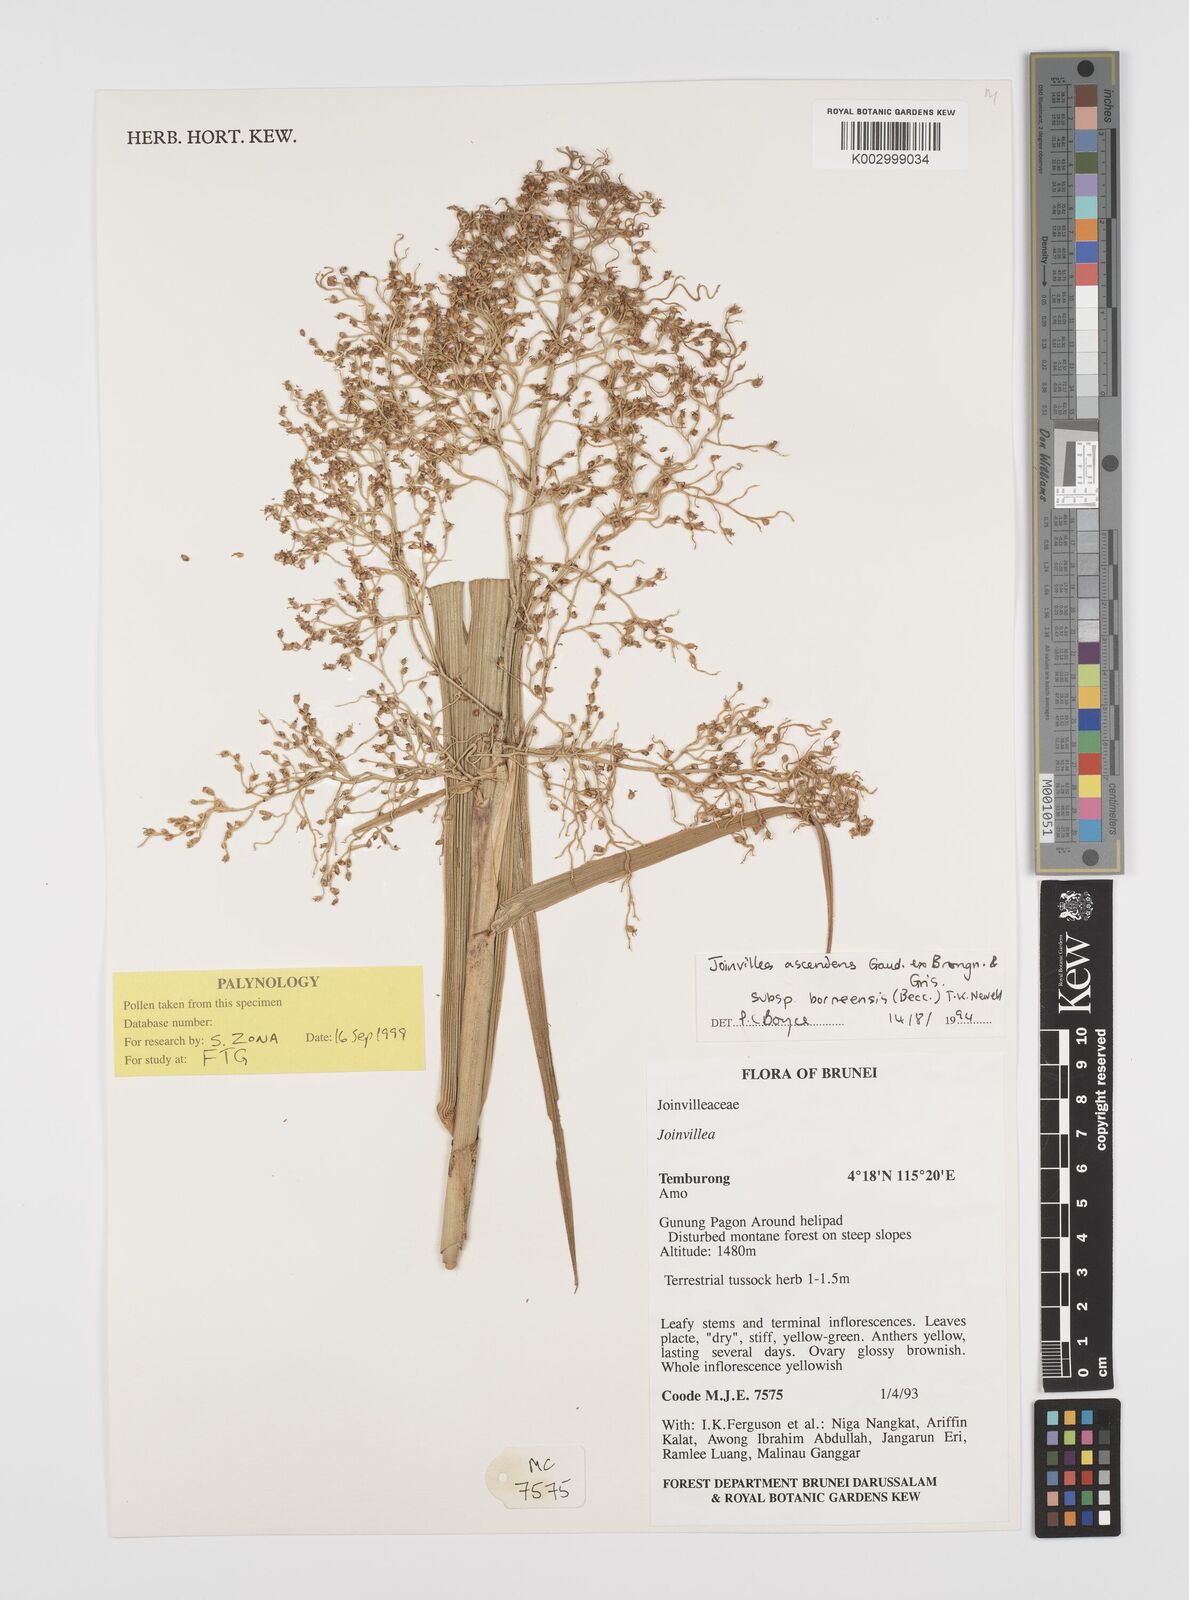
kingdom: Plantae
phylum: Tracheophyta
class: Liliopsida
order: Poales
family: Joinvilleaceae
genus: Joinvillea
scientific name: Joinvillea borneensis
